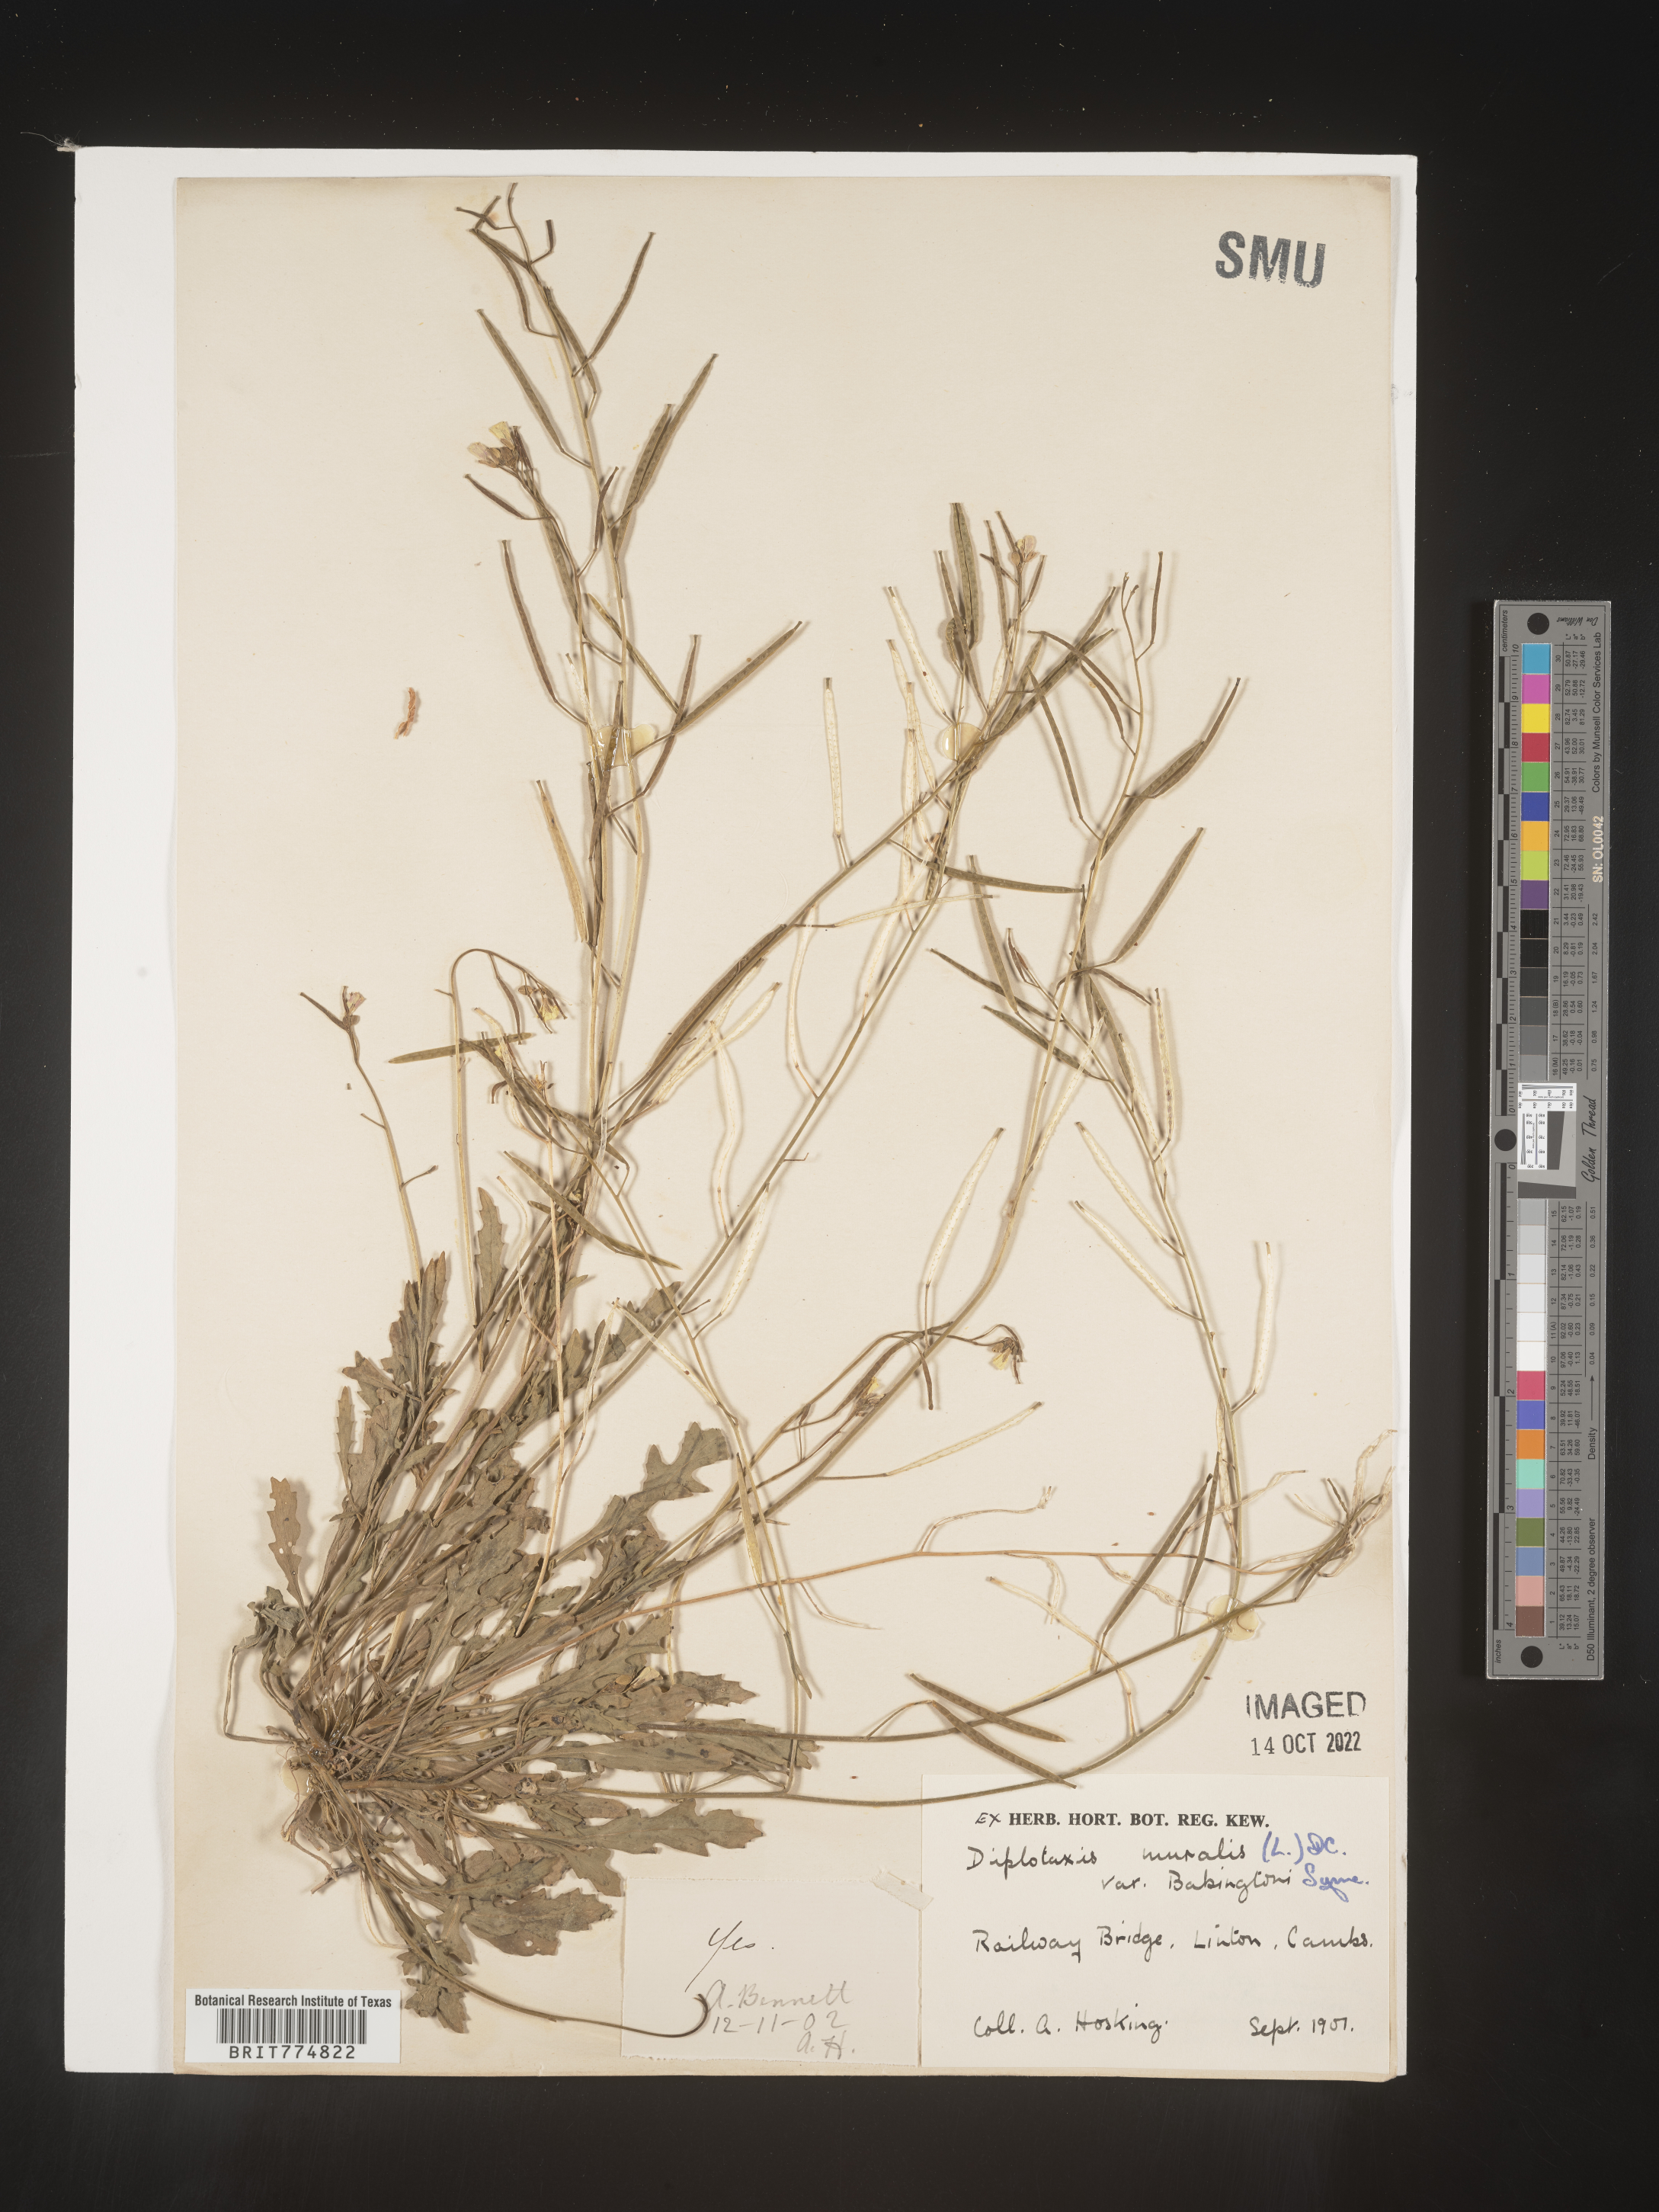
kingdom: Plantae
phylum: Tracheophyta
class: Magnoliopsida
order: Brassicales
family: Brassicaceae
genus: Diplotaxis
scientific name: Diplotaxis
